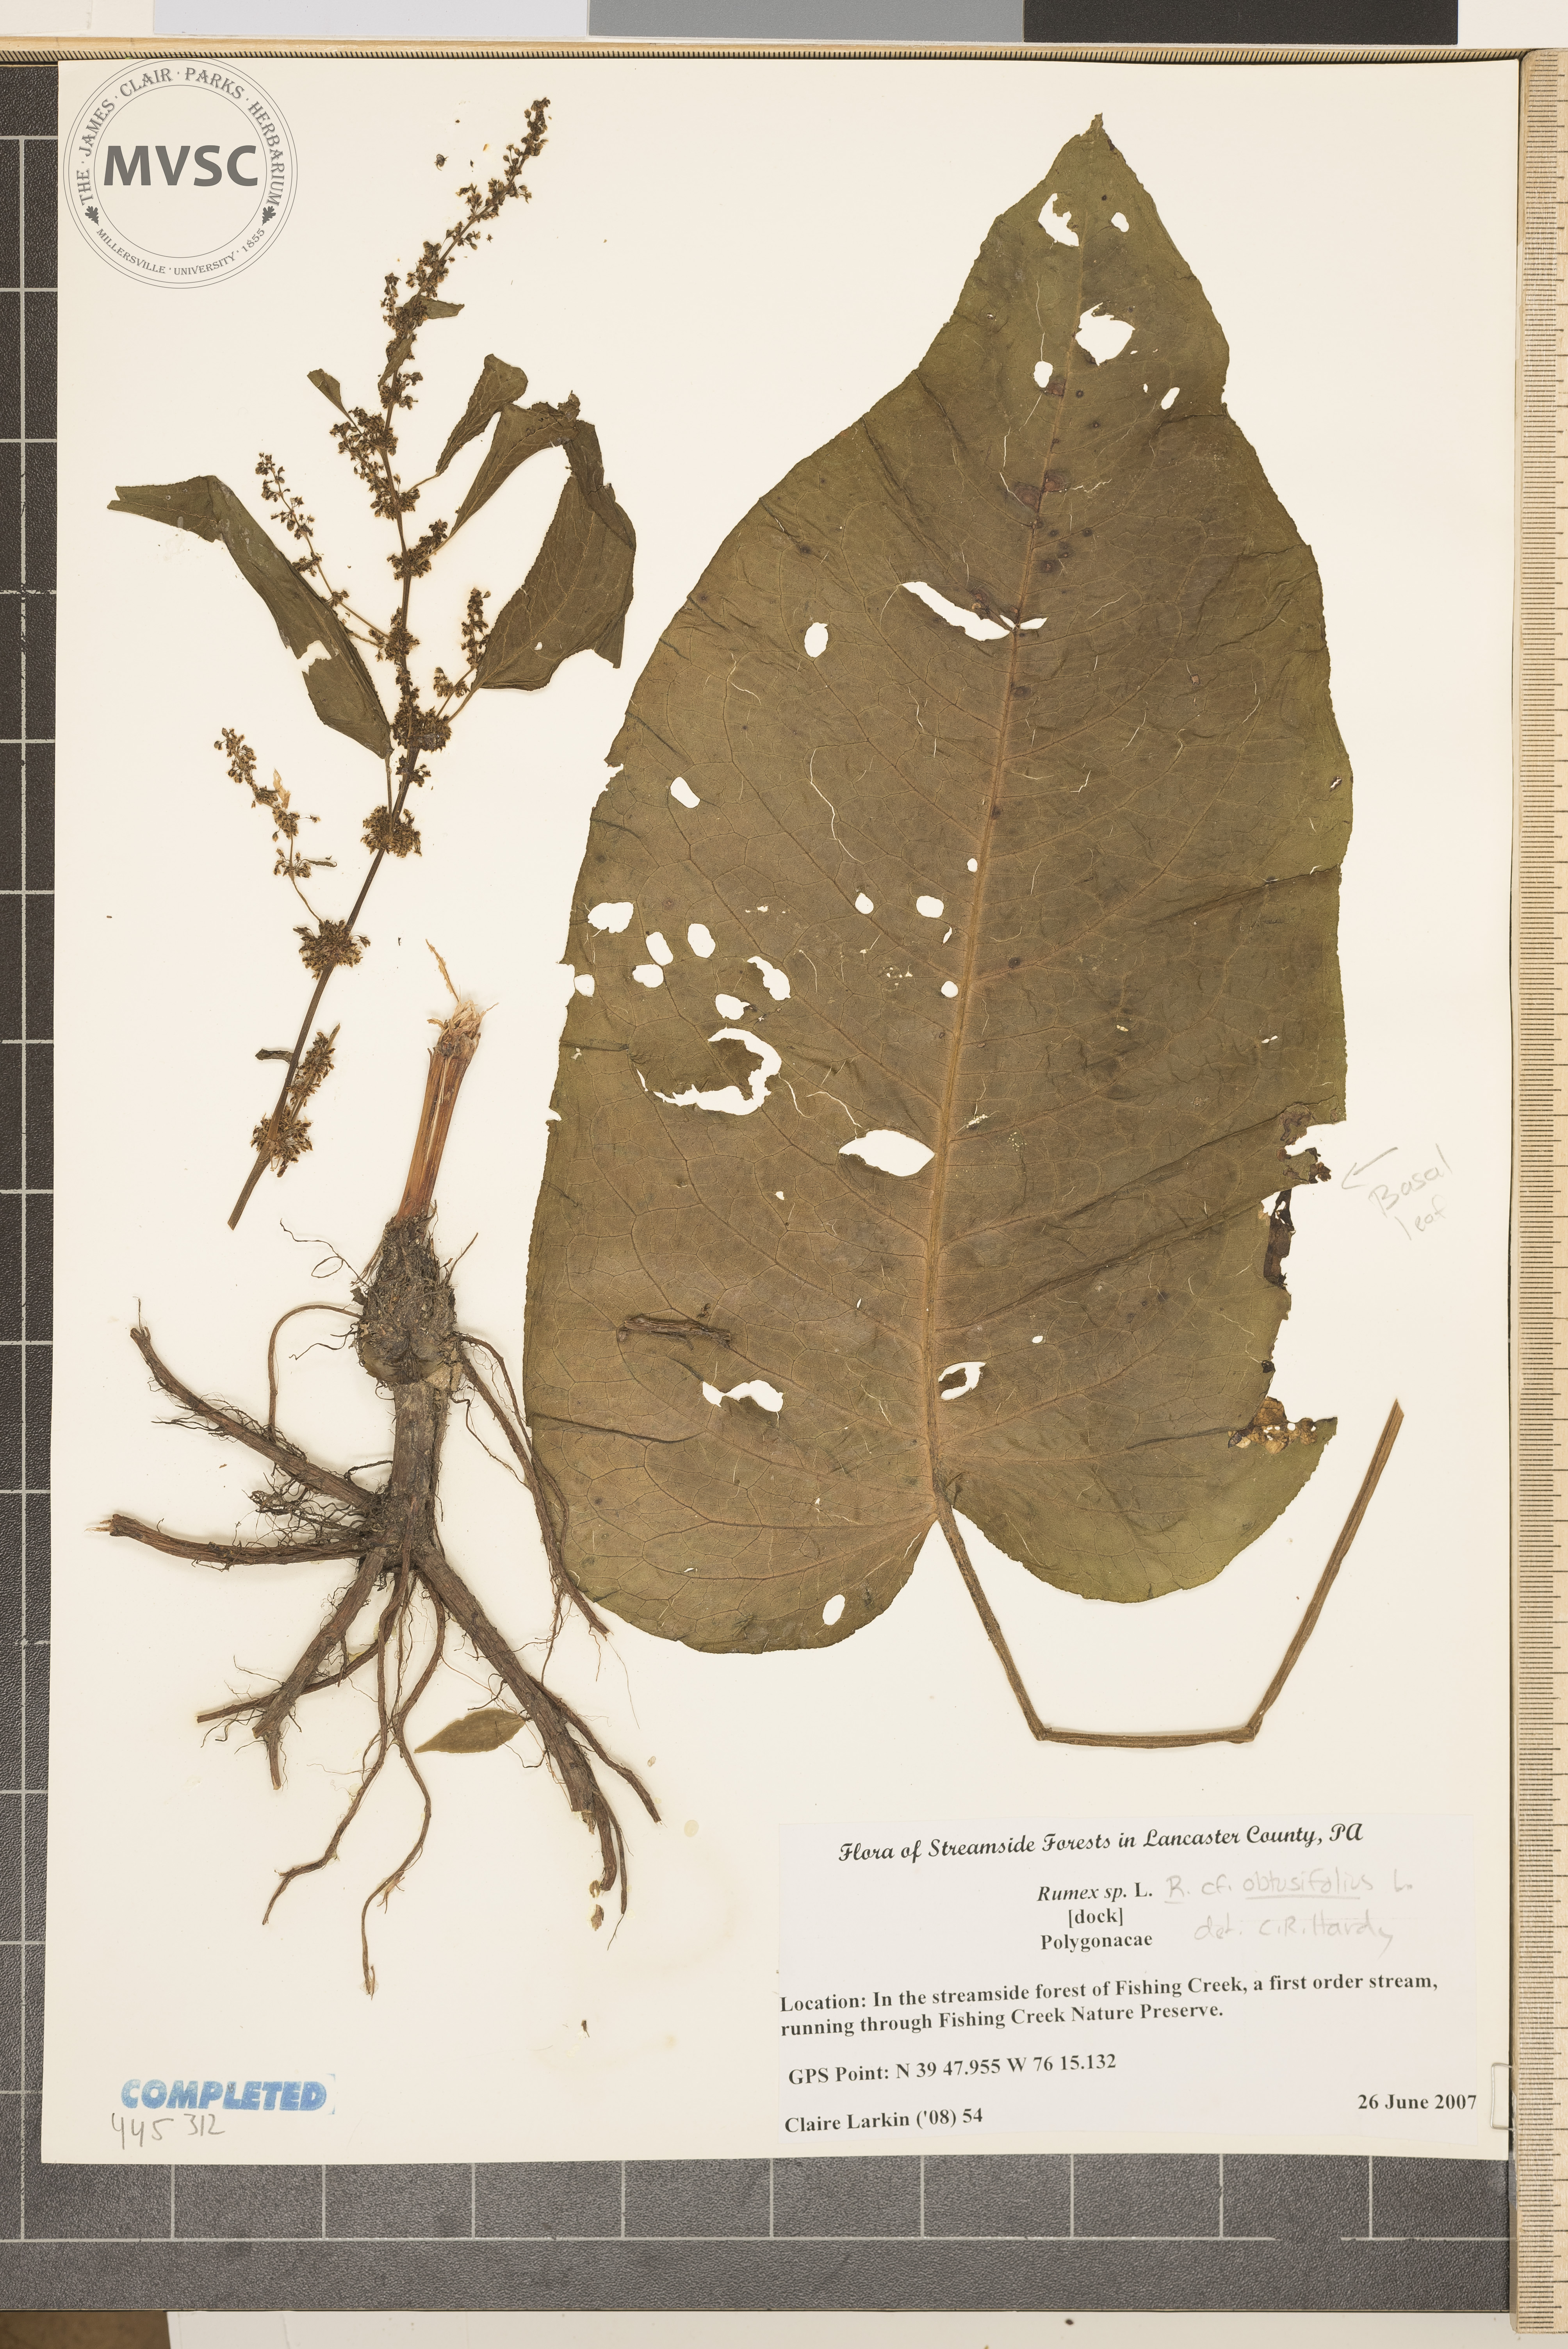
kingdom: Plantae
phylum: Tracheophyta
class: Magnoliopsida
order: Caryophyllales
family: Polygonaceae
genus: Rumex
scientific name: Rumex obtusifolius
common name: Bitter dock
